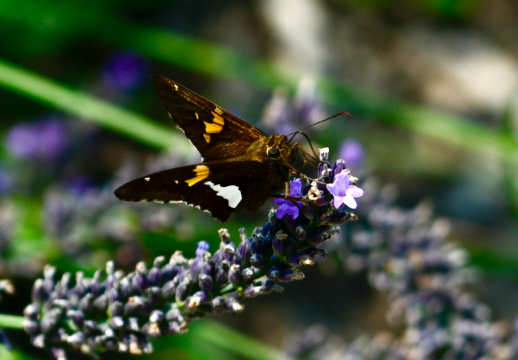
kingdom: Animalia
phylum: Arthropoda
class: Insecta
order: Lepidoptera
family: Hesperiidae
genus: Epargyreus
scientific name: Epargyreus clarus
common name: Silver-spotted Skipper
